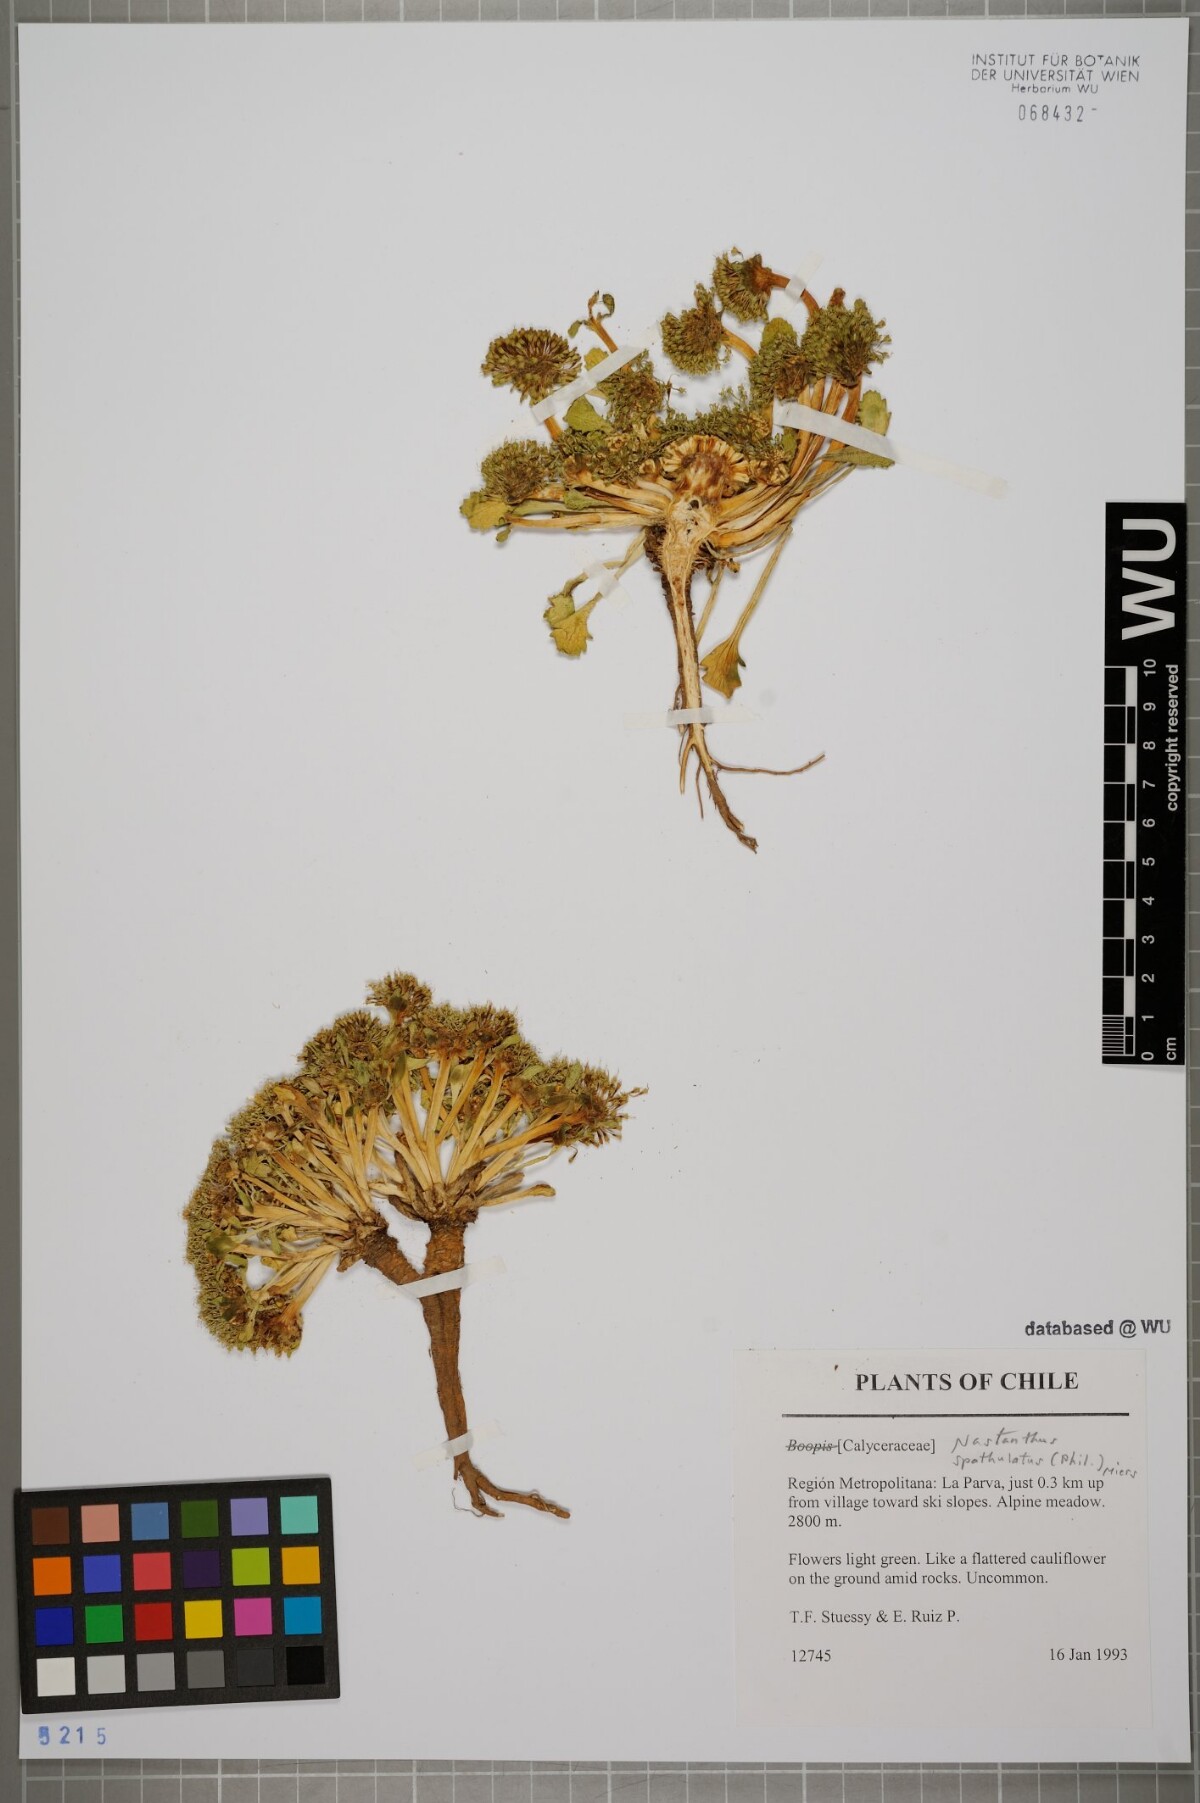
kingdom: Plantae
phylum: Tracheophyta
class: Magnoliopsida
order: Asterales
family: Calyceraceae
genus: Gamocarpha
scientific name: Gamocarpha scapigera
